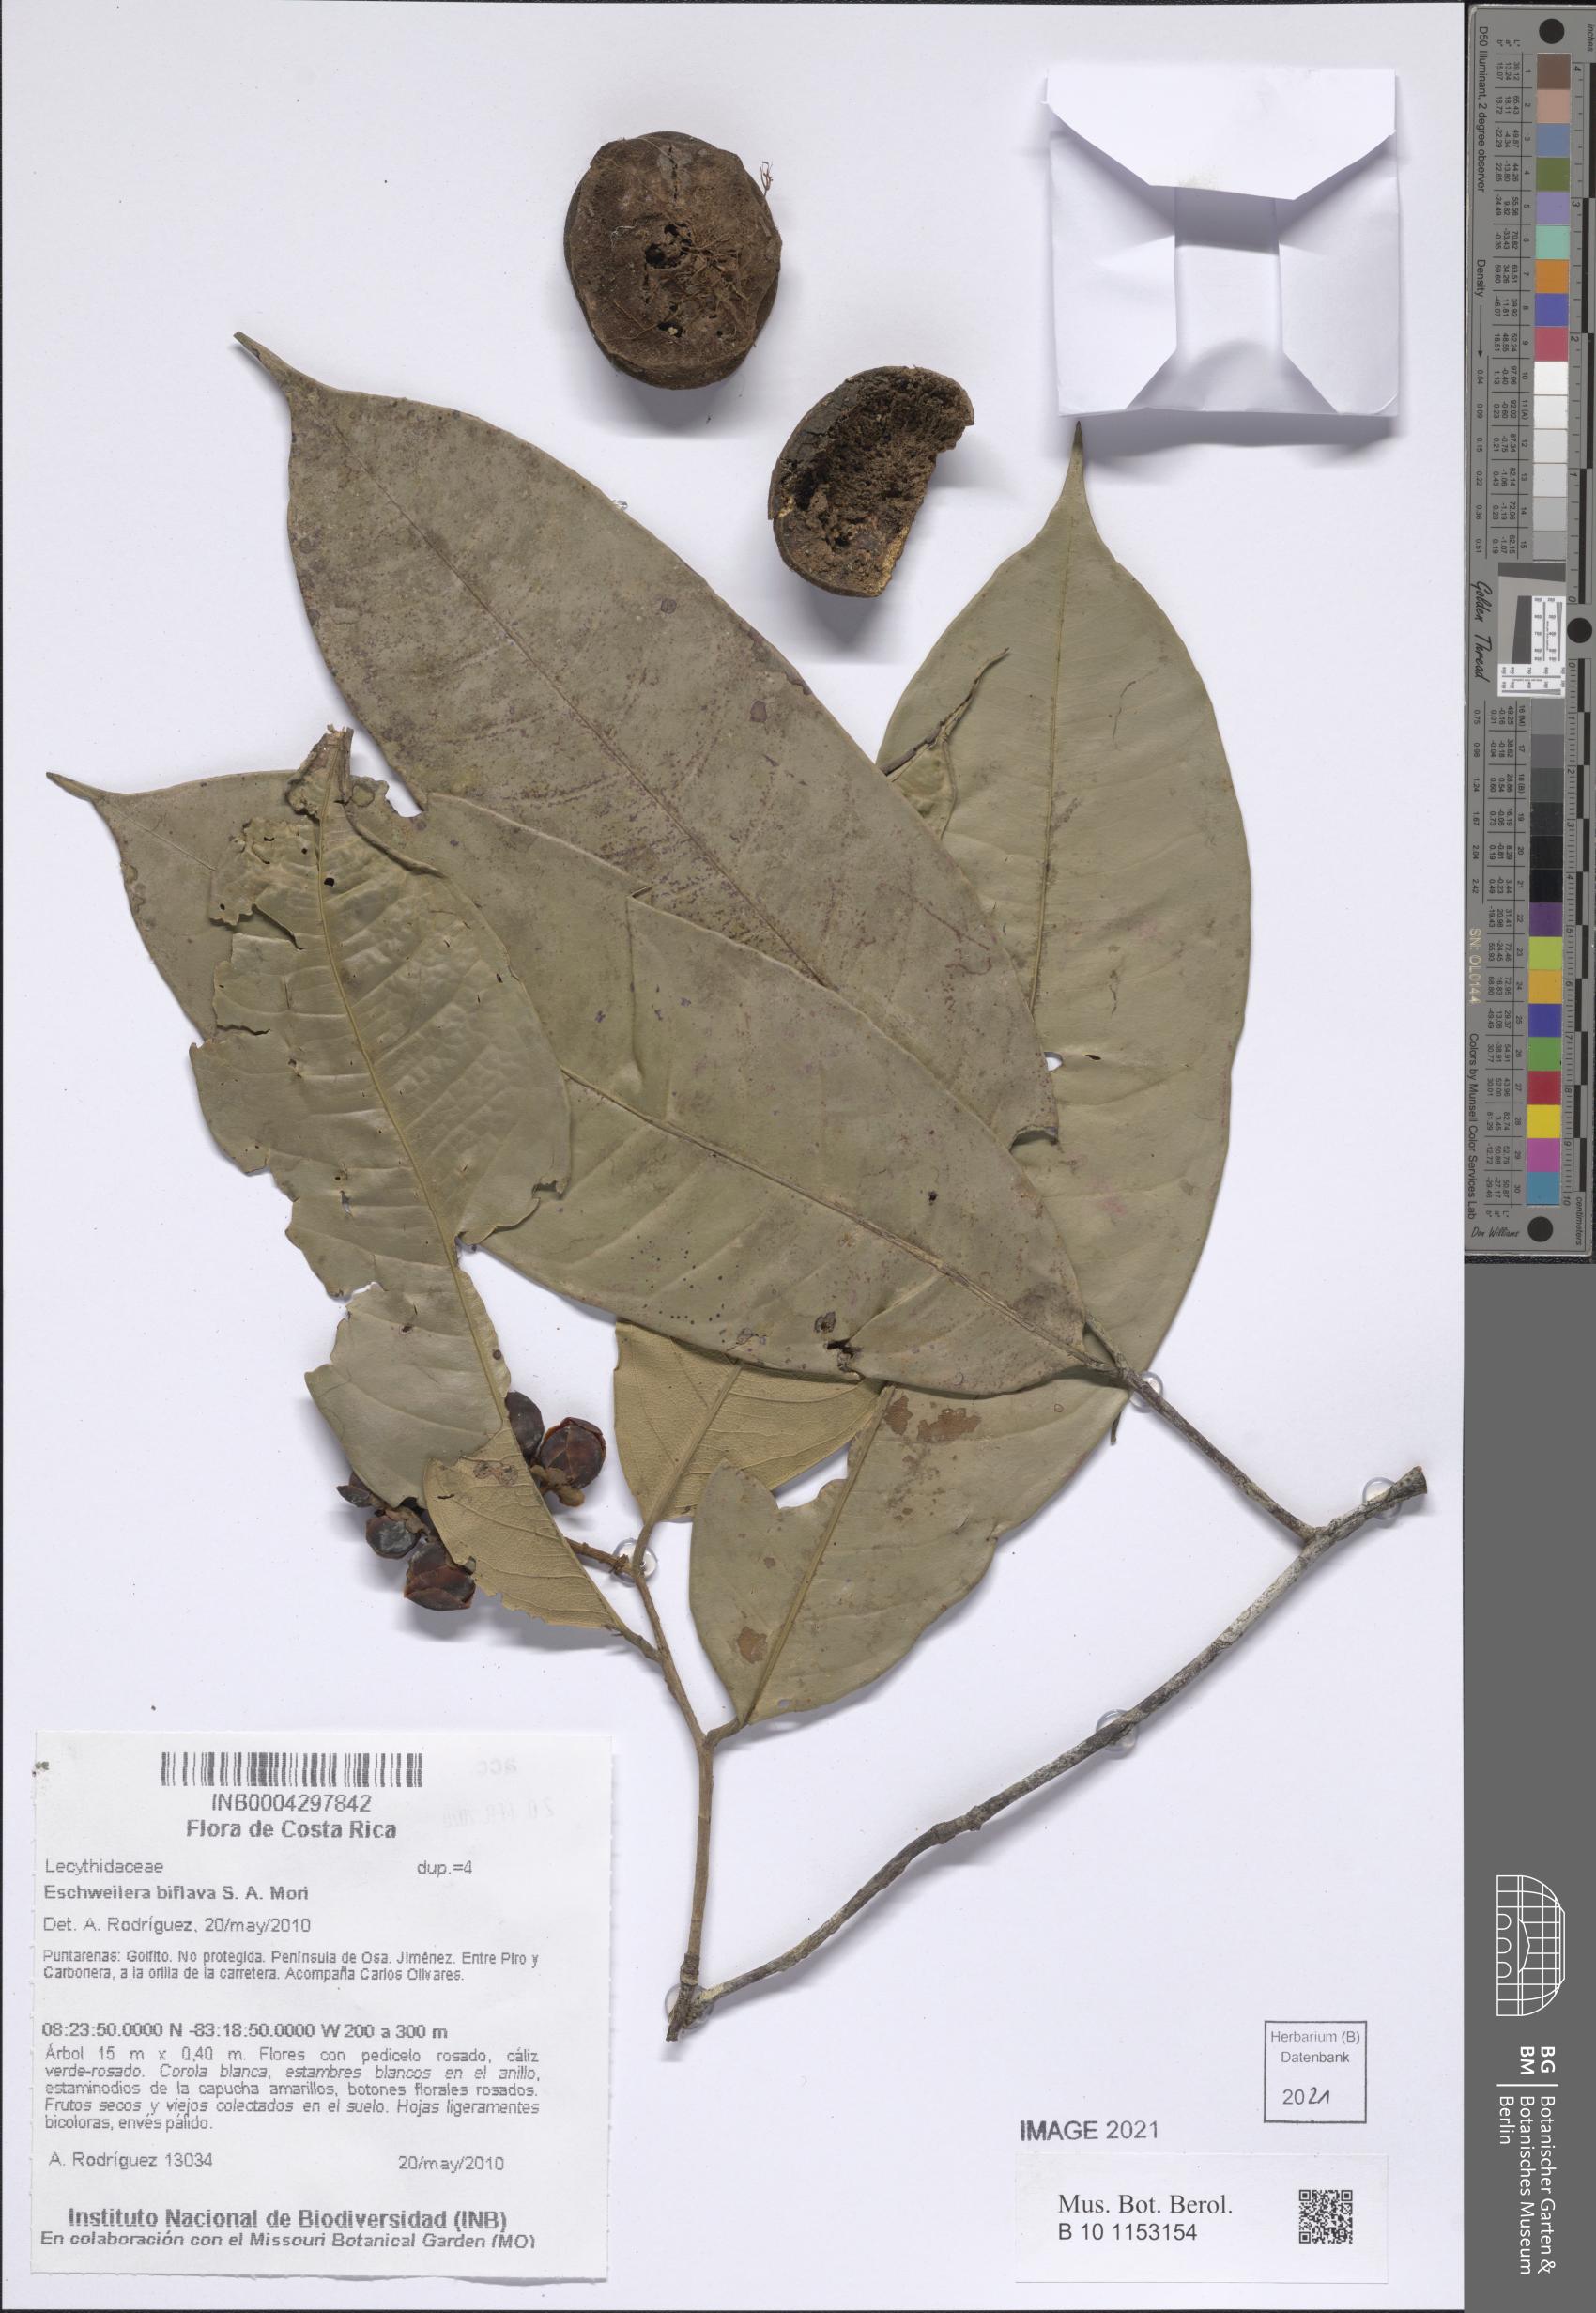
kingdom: Plantae
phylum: Tracheophyta
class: Magnoliopsida
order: Ericales
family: Lecythidaceae
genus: Eschweilera
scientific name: Eschweilera biflava
